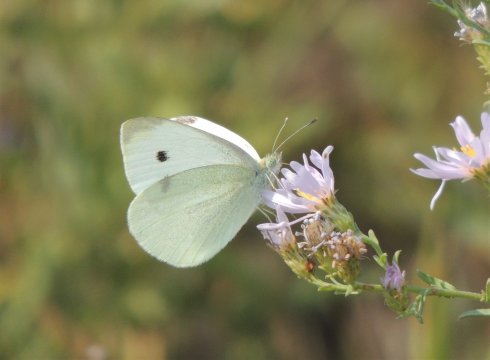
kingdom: Animalia
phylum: Arthropoda
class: Insecta
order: Lepidoptera
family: Pieridae
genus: Pieris
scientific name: Pieris rapae
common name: Cabbage White
